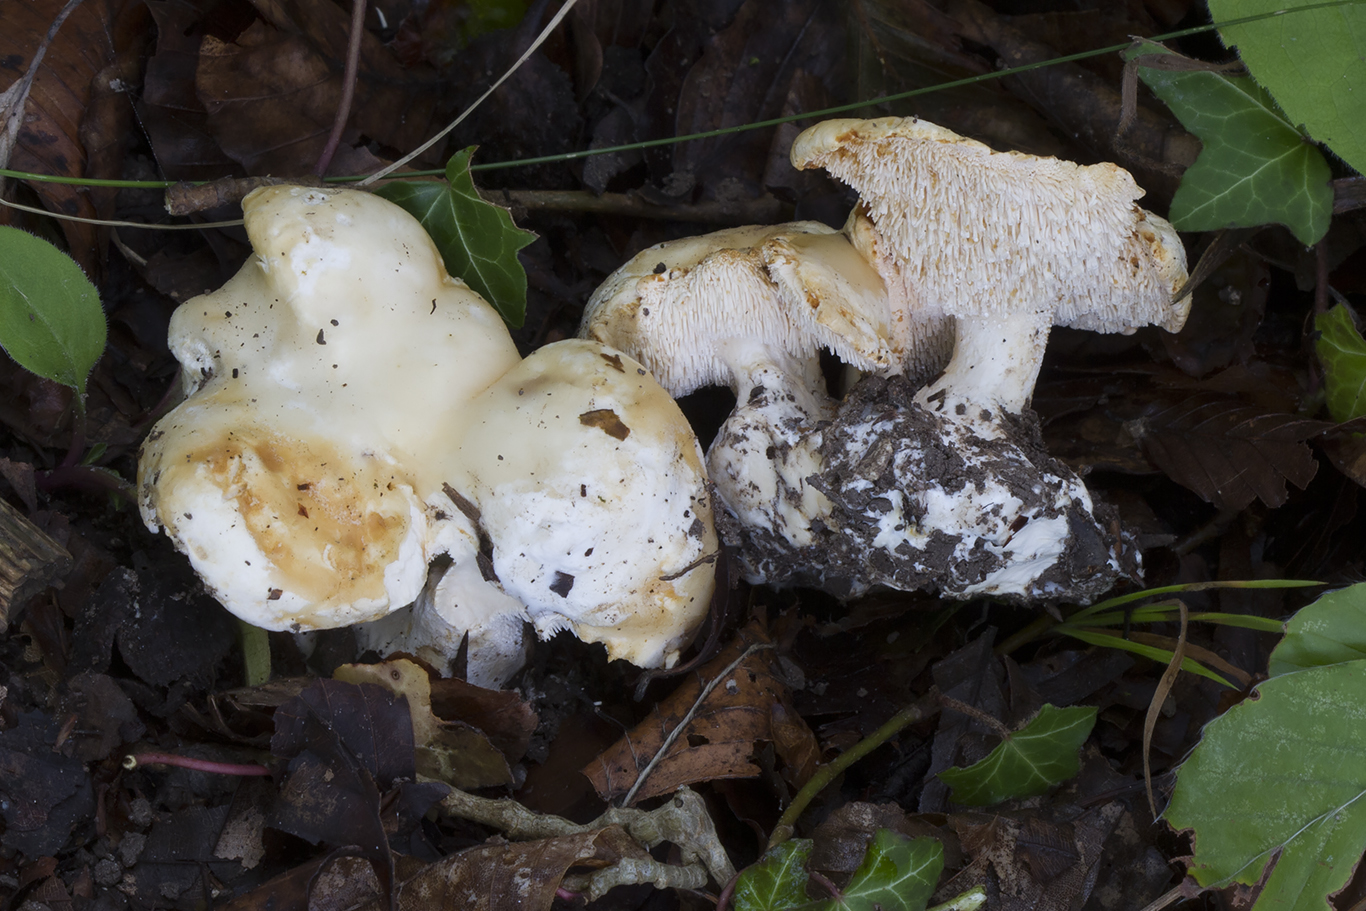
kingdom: Fungi
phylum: Basidiomycota
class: Agaricomycetes
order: Cantharellales
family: Hydnaceae
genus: Hydnum
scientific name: Hydnum repandum
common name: hvid pigsvamp
